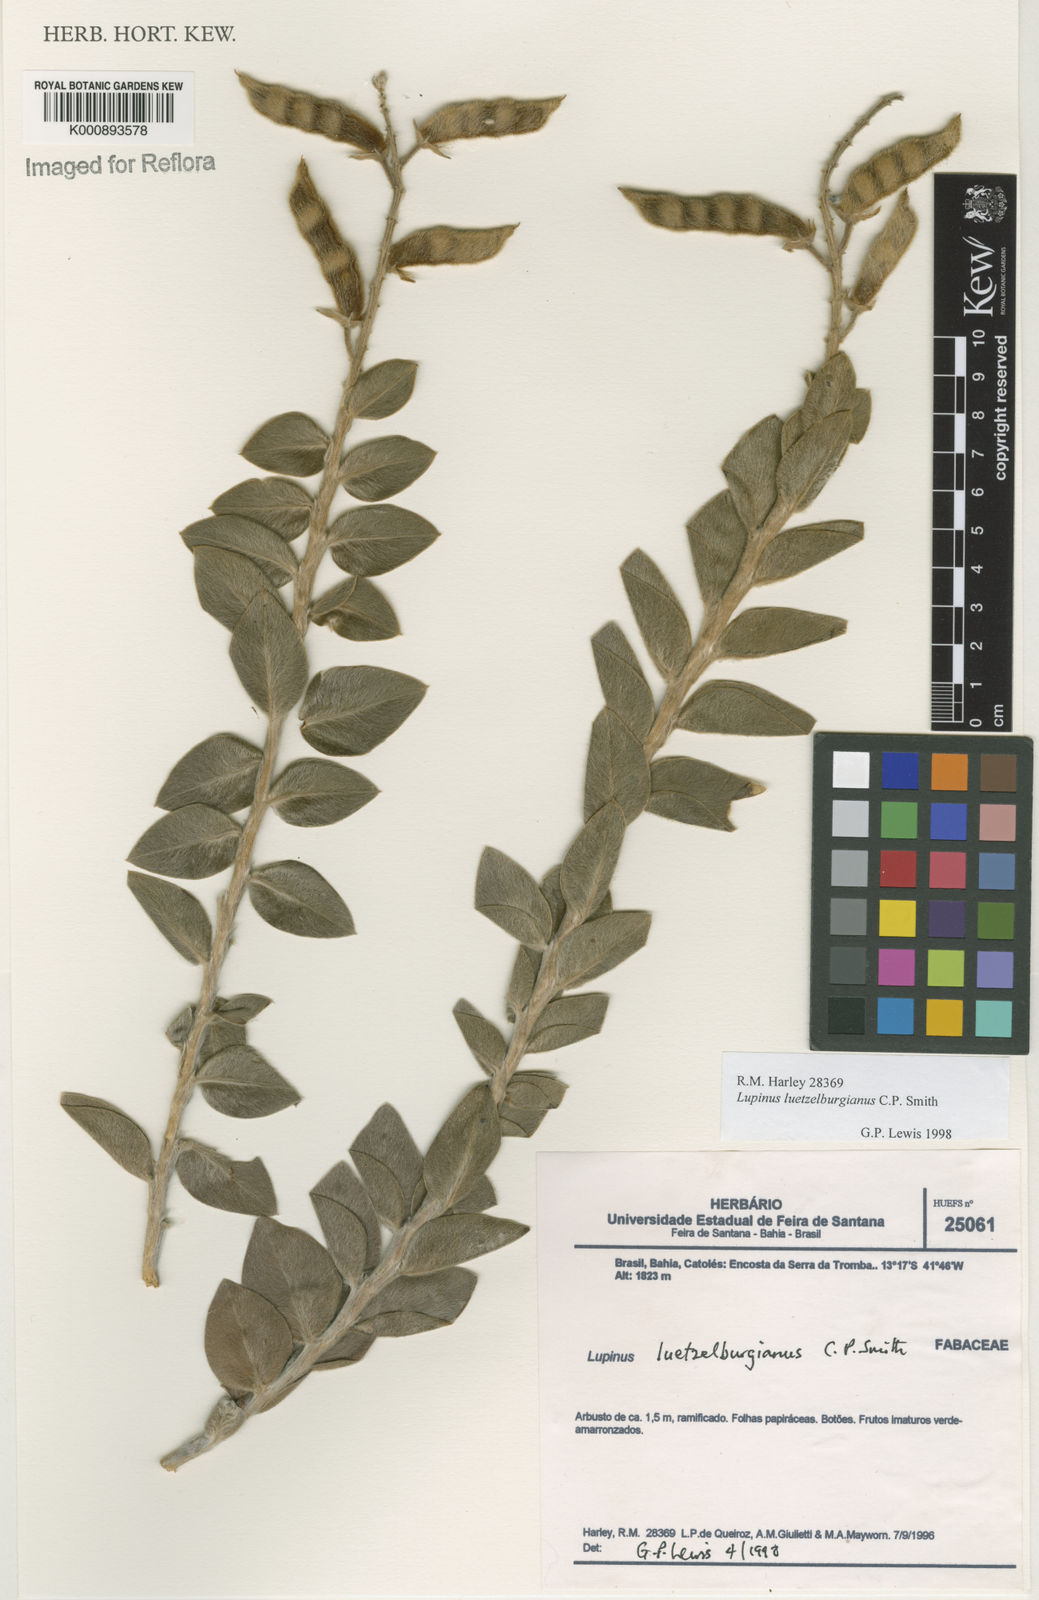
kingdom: Plantae
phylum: Tracheophyta
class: Magnoliopsida
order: Fabales
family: Fabaceae
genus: Lupinus
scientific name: Lupinus
